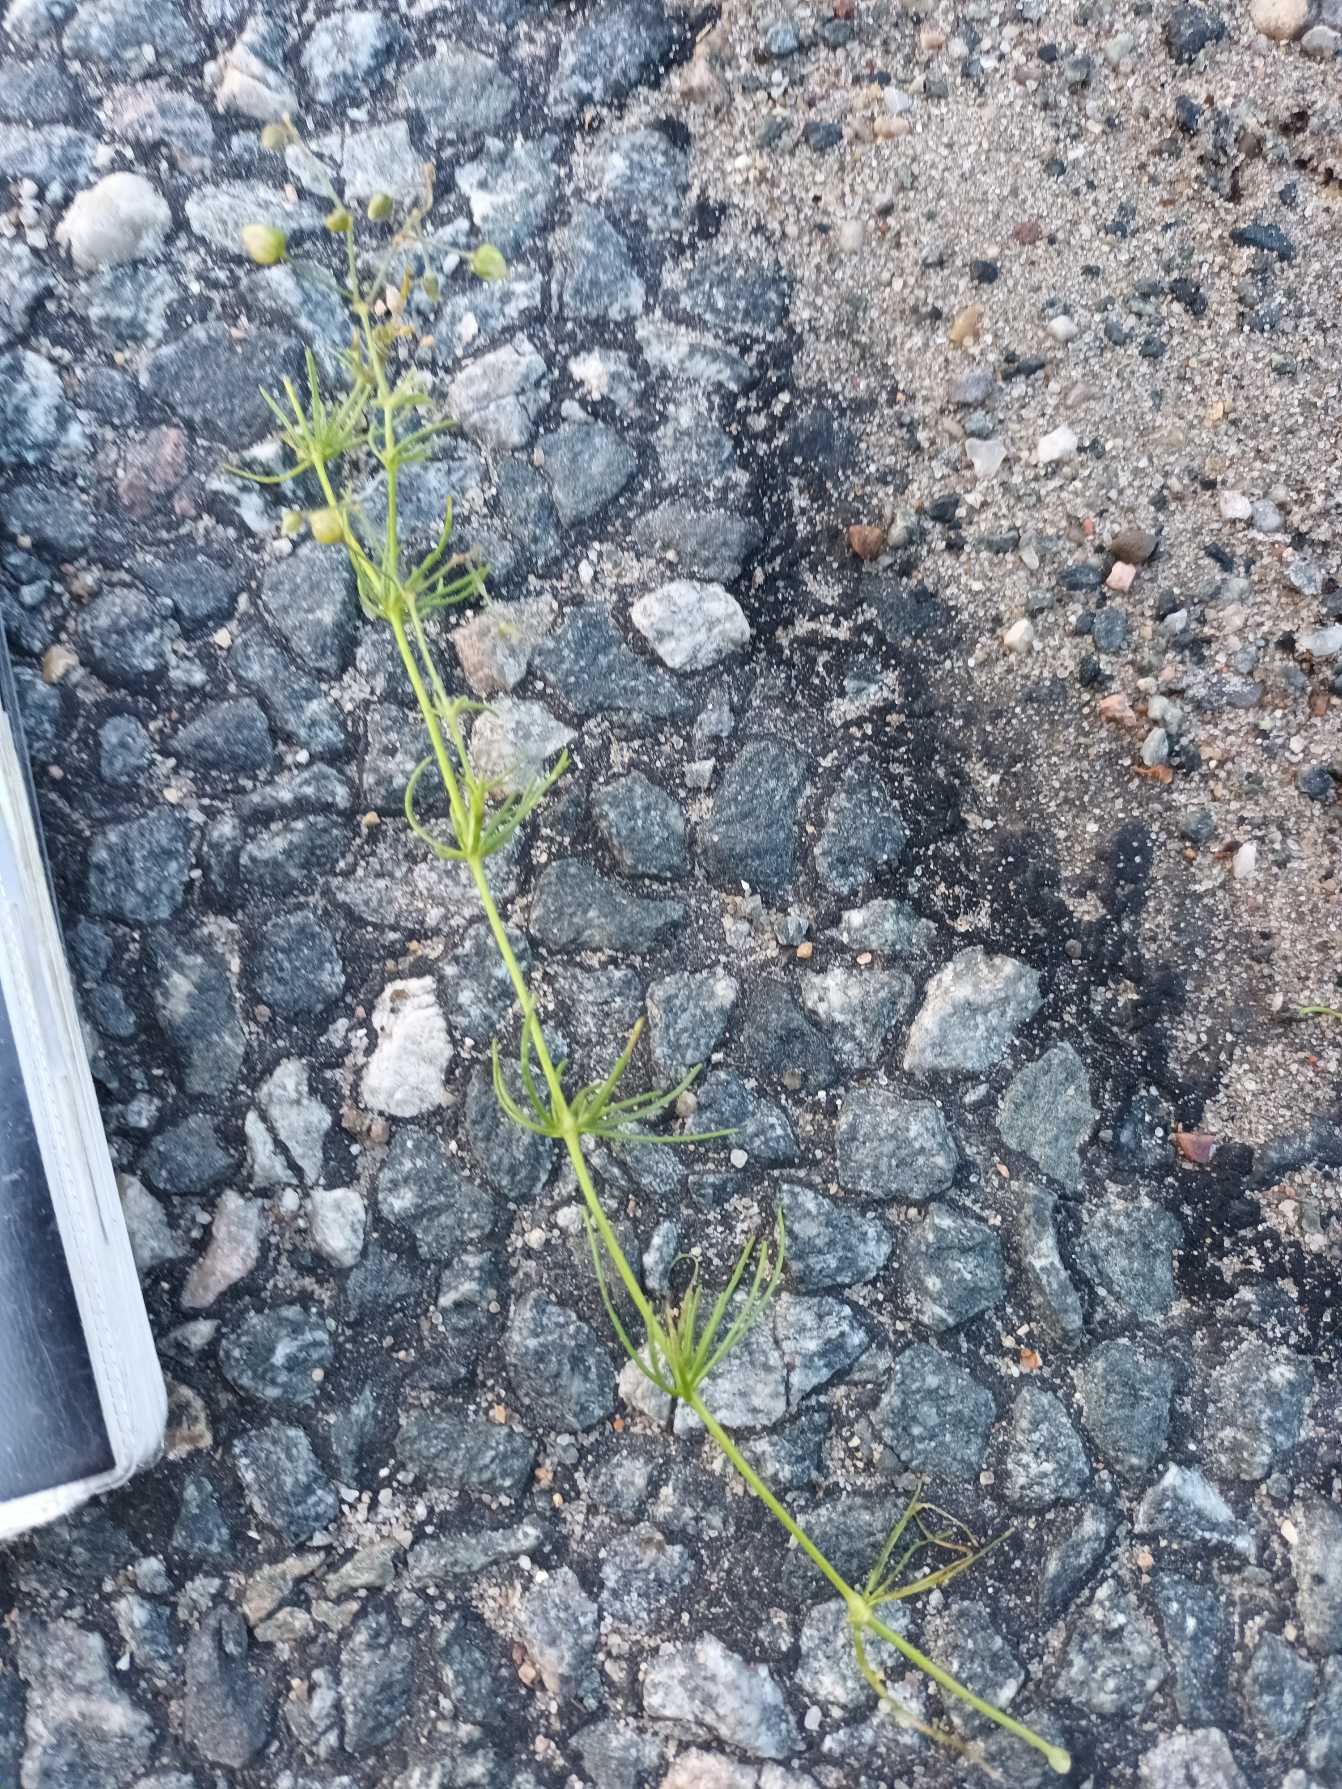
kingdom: Plantae
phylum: Tracheophyta
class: Magnoliopsida
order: Caryophyllales
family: Caryophyllaceae
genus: Spergula
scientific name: Spergula arvensis
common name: Almindelig spergel (underart)
